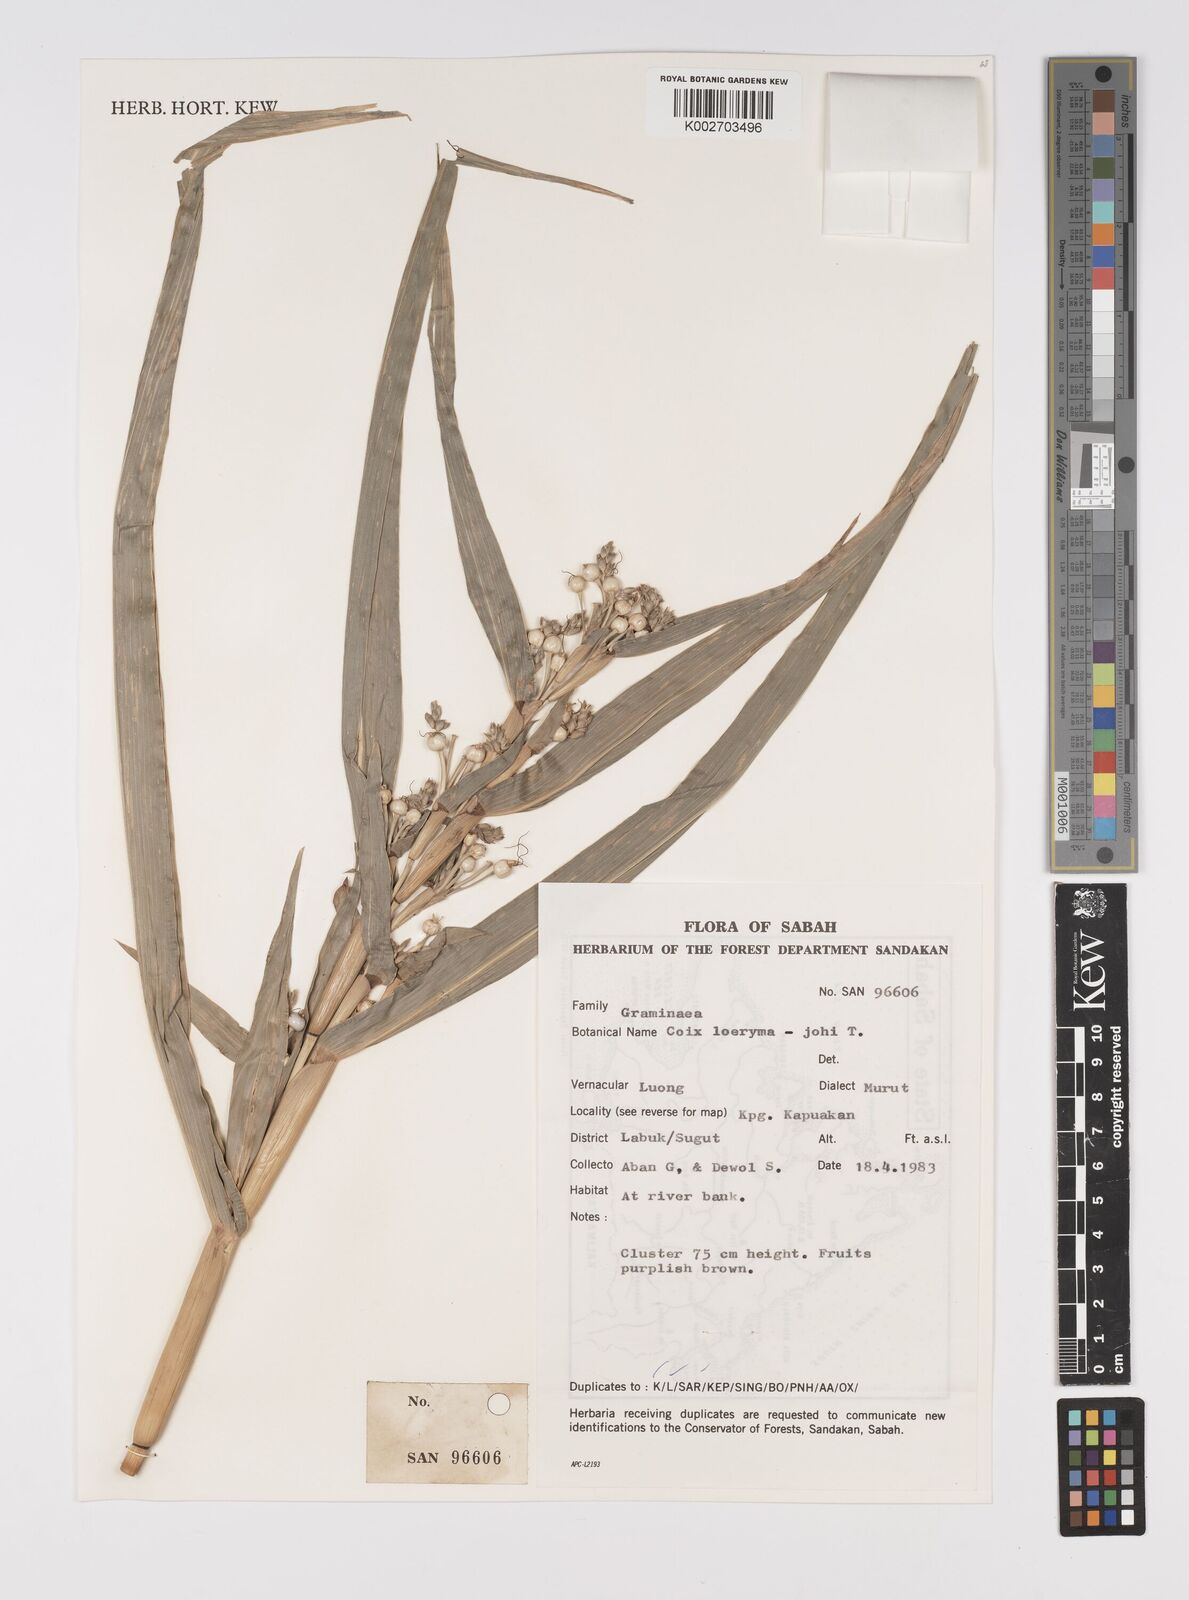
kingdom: Plantae
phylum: Tracheophyta
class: Liliopsida
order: Poales
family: Poaceae
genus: Coix
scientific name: Coix lacryma-jobi
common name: Job's tears
